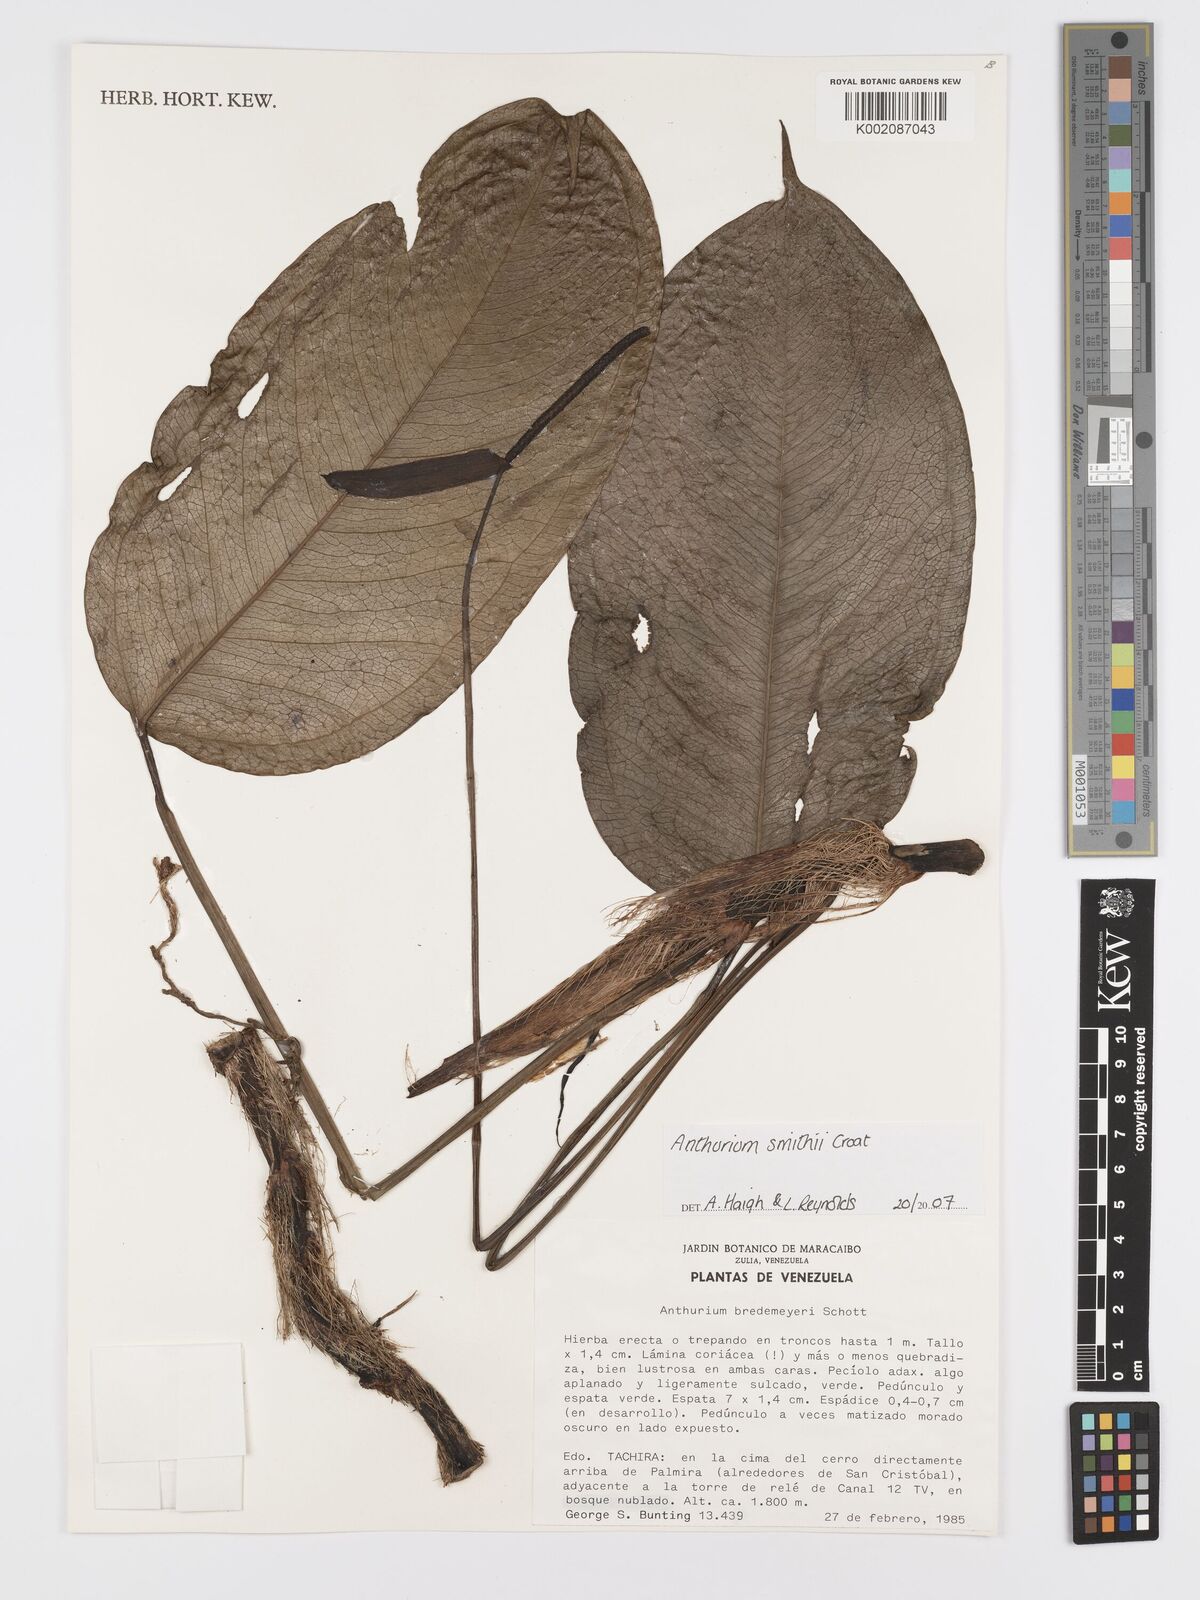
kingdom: Plantae
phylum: Tracheophyta
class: Liliopsida
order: Alismatales
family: Araceae
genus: Anthurium
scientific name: Anthurium smithii
